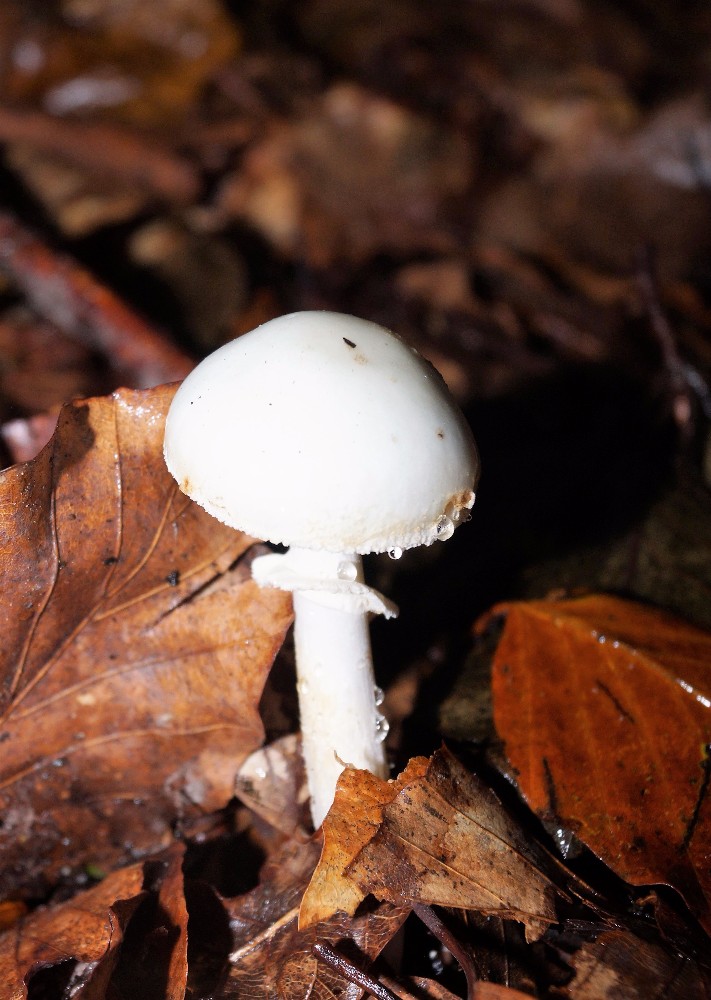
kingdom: Fungi
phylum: Basidiomycota
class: Agaricomycetes
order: Agaricales
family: Amanitaceae
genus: Amanita
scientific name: Amanita citrina
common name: False death-cap
